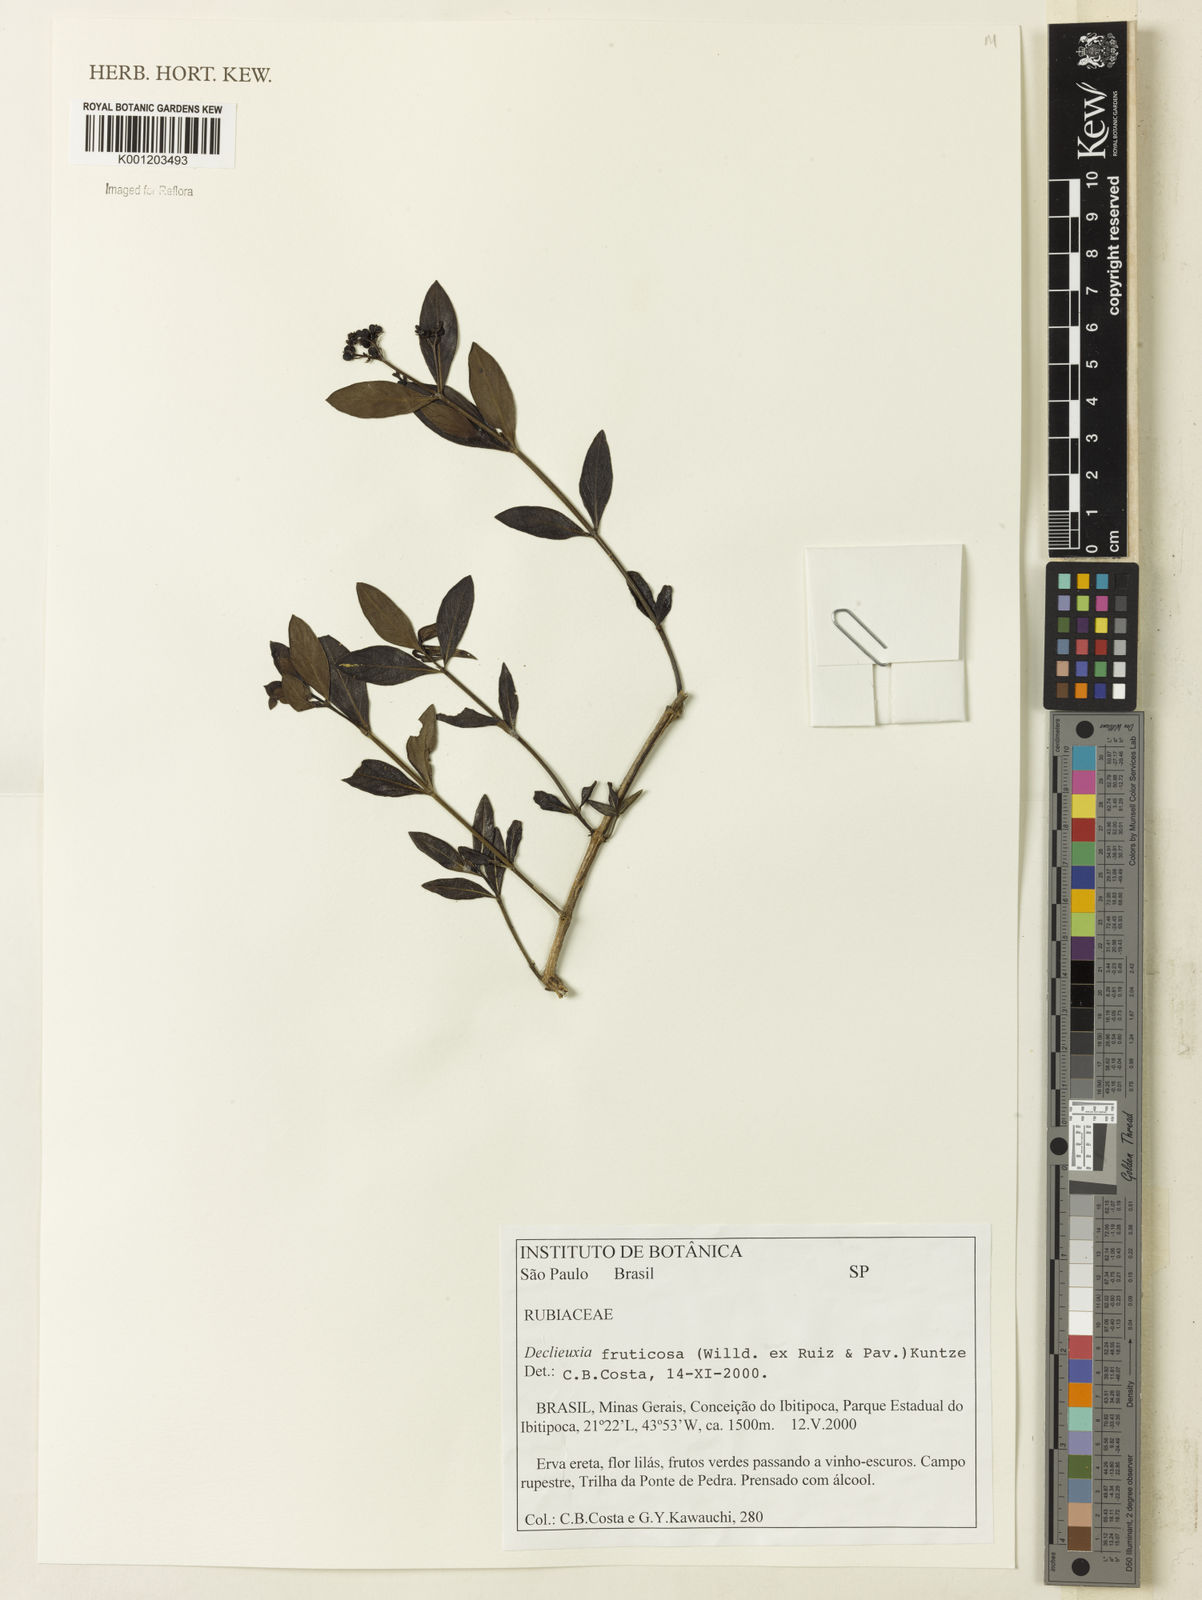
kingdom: Plantae
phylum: Tracheophyta
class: Magnoliopsida
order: Gentianales
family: Rubiaceae
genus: Declieuxia
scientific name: Declieuxia fruticosa
